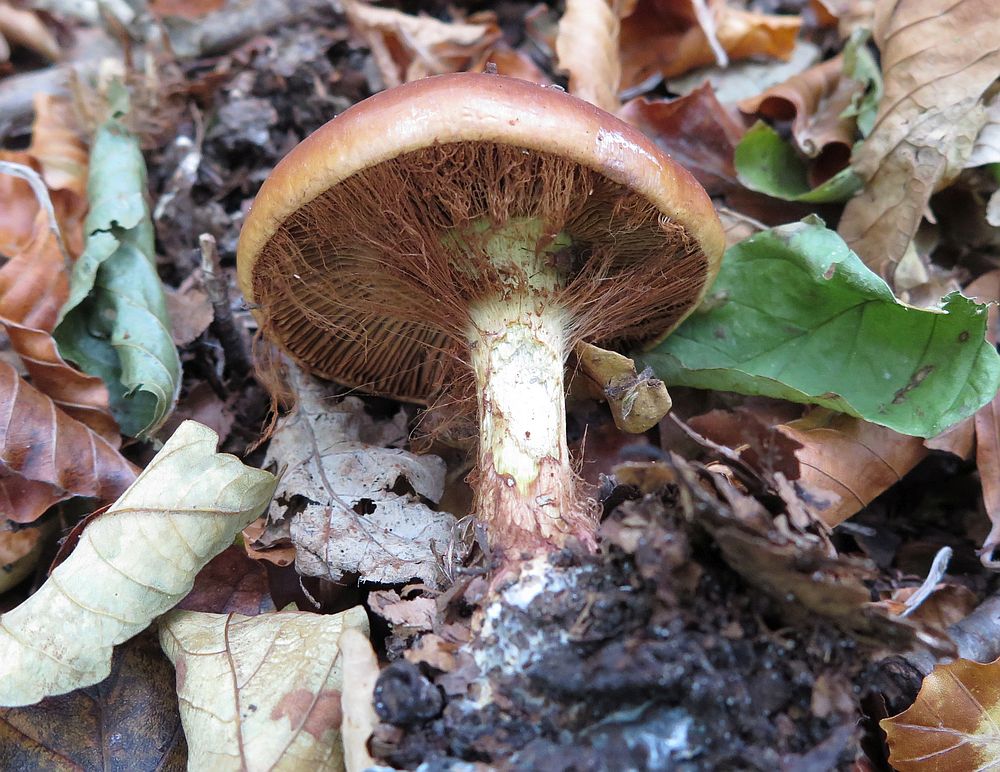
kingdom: Fungi
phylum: Basidiomycota
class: Agaricomycetes
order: Agaricales
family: Cortinariaceae
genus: Calonarius
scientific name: Calonarius elegantissimus
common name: orangegylden slørhat
